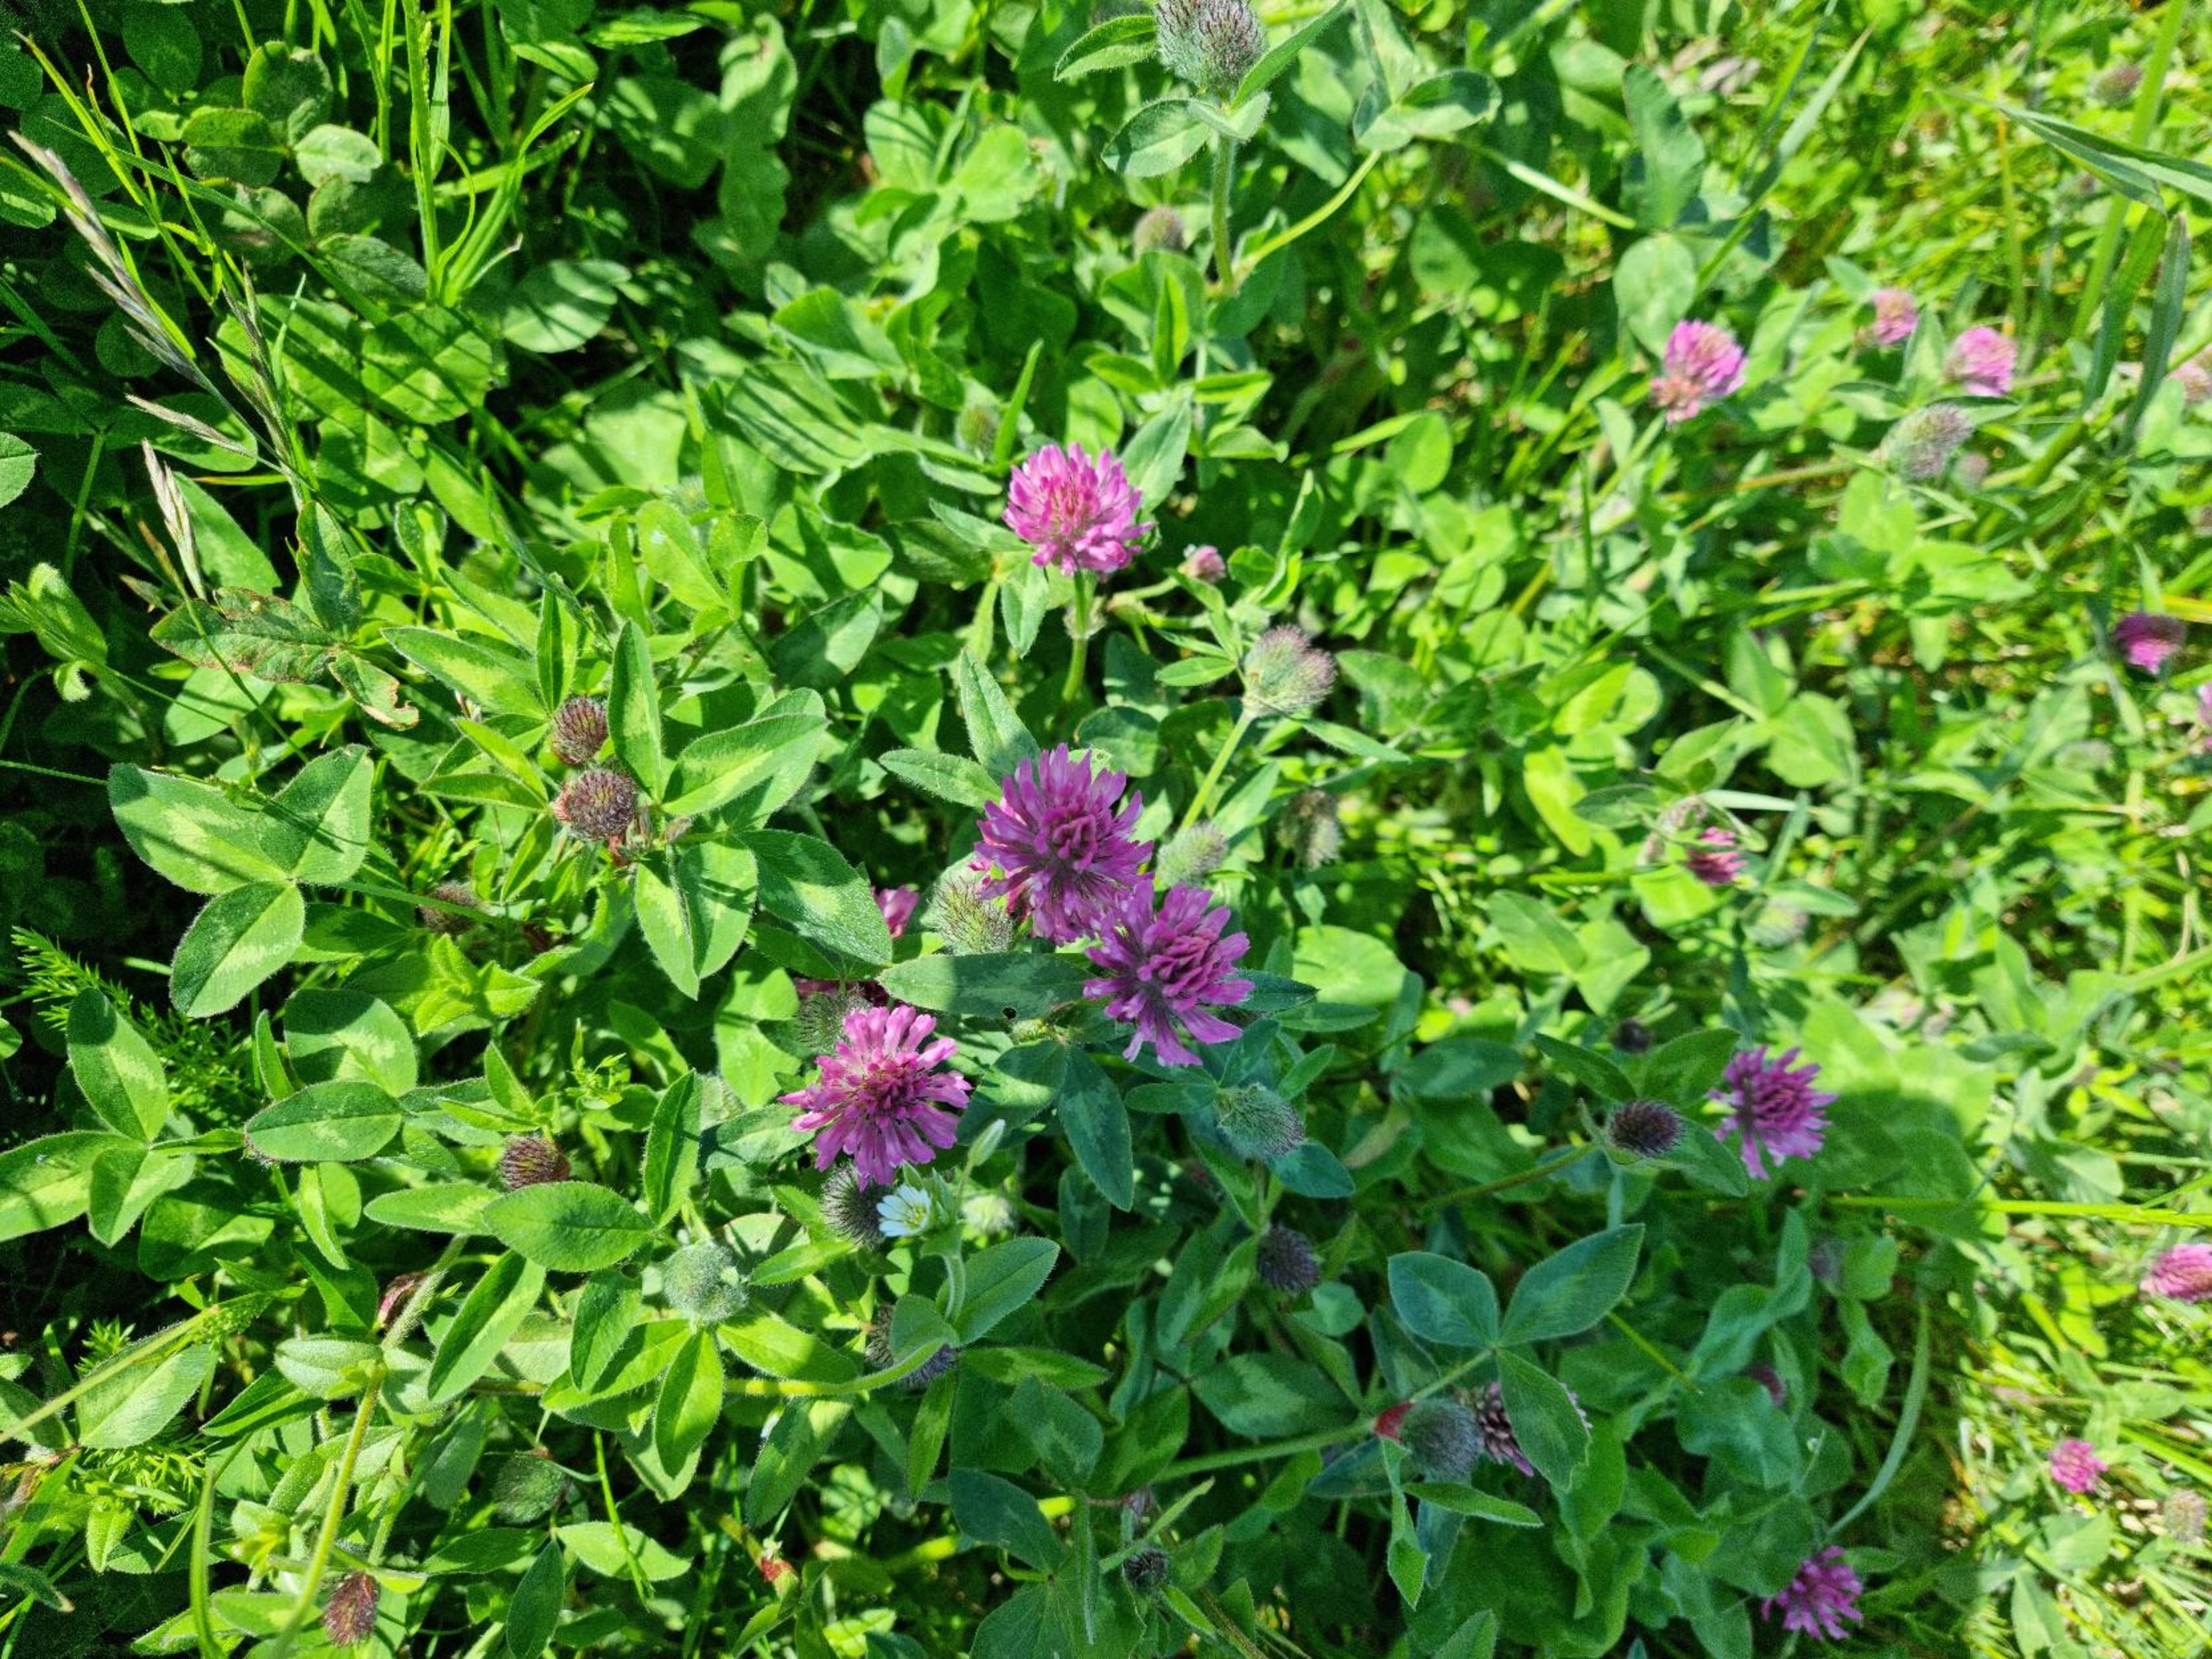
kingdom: Plantae
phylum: Tracheophyta
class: Magnoliopsida
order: Fabales
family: Fabaceae
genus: Trifolium
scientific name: Trifolium pratense
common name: Rød-kløver
